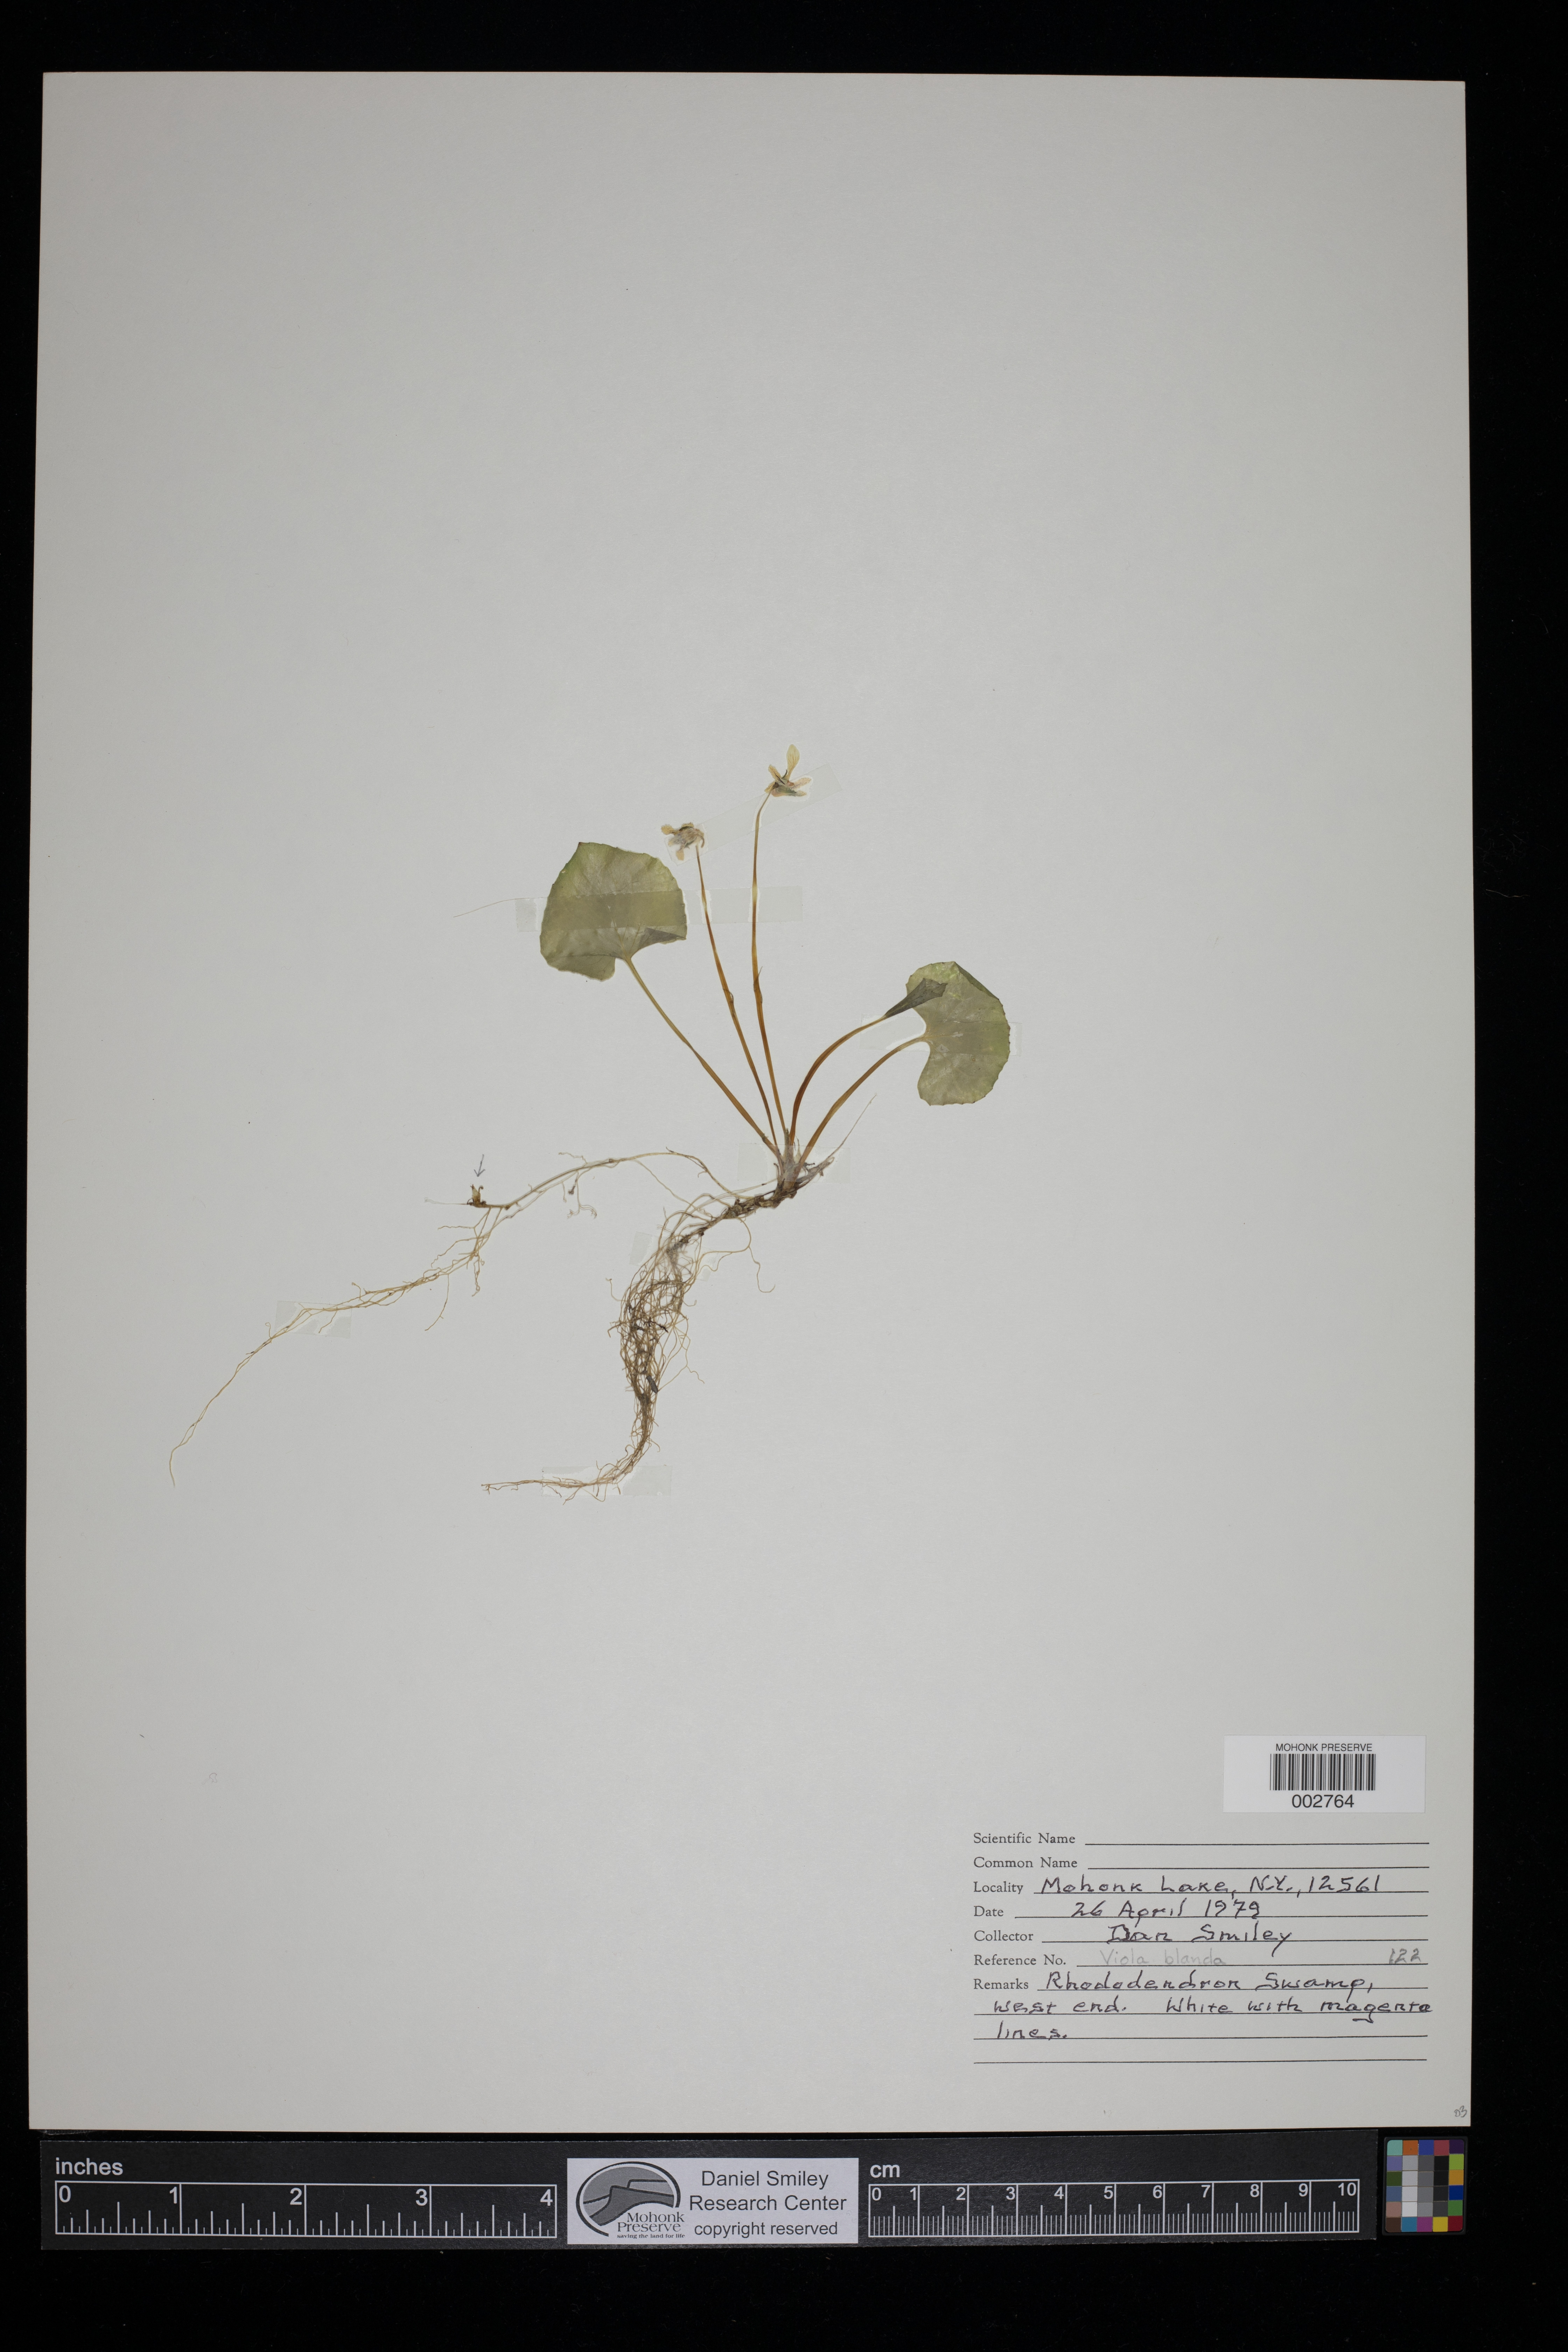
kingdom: Plantae
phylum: Tracheophyta
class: Magnoliopsida
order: Malpighiales
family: Violaceae
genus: Viola
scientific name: Viola blanda
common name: Sweet white violet
